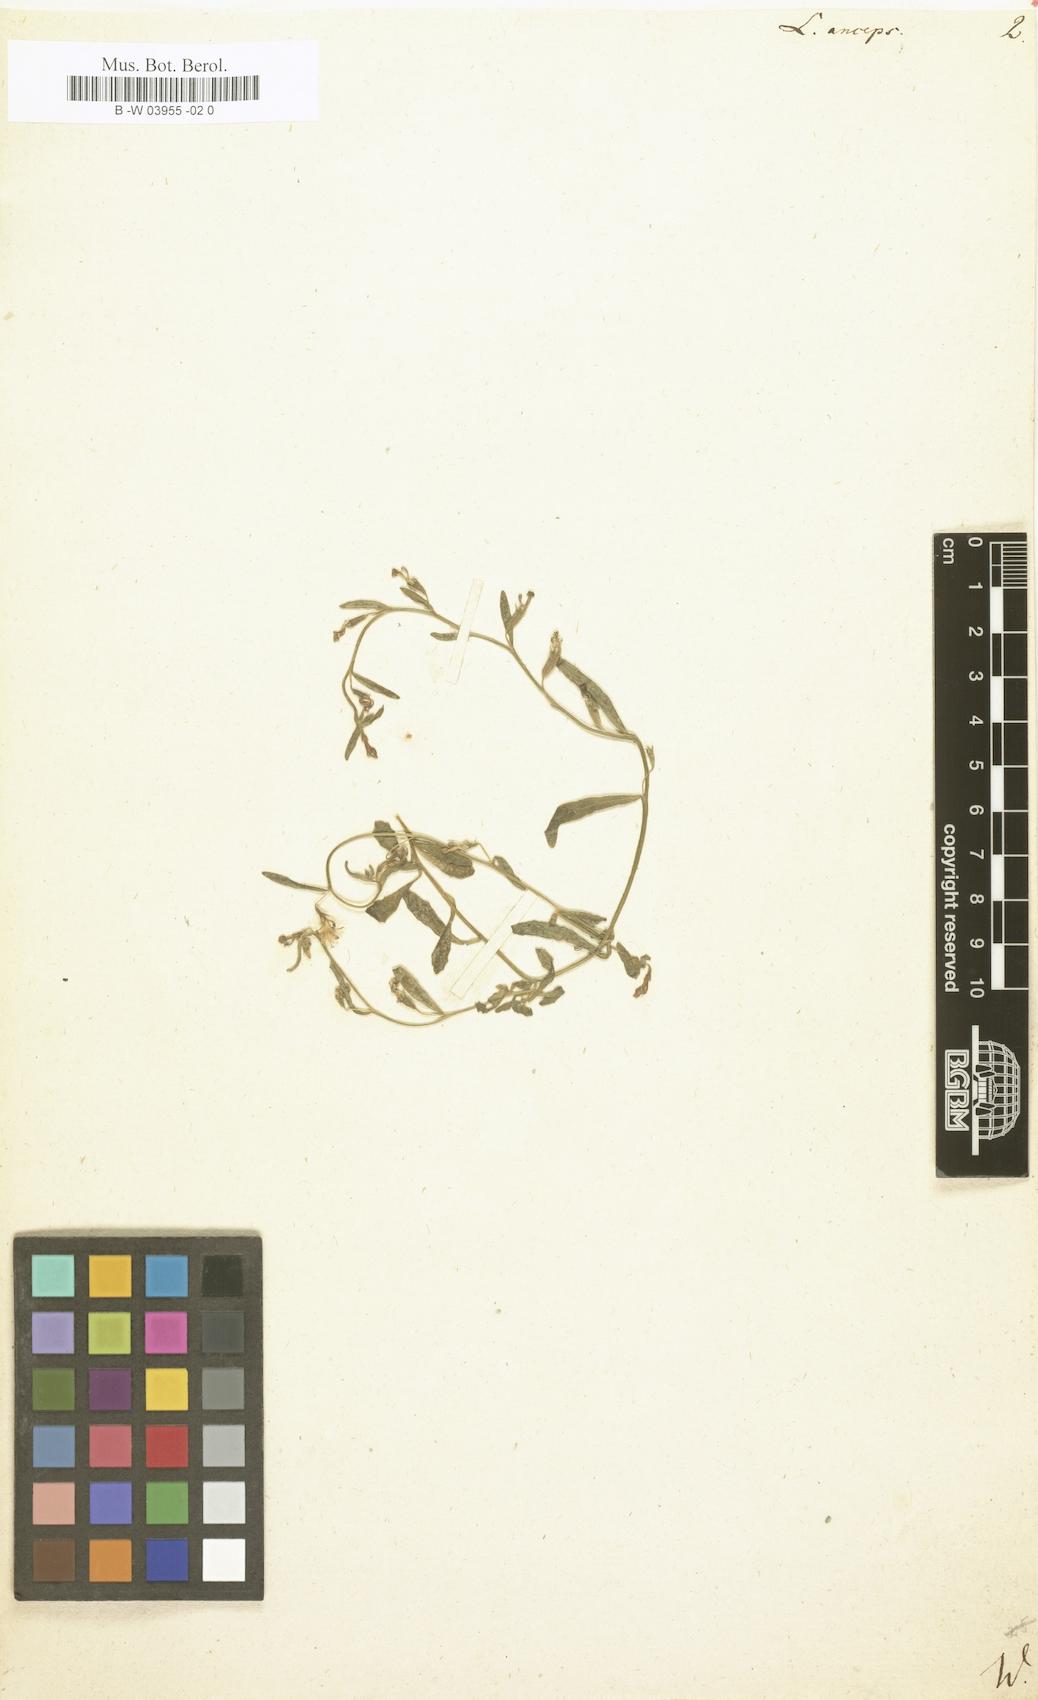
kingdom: Plantae
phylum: Tracheophyta
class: Magnoliopsida
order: Asterales
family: Campanulaceae
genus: Lobelia
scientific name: Lobelia anceps
